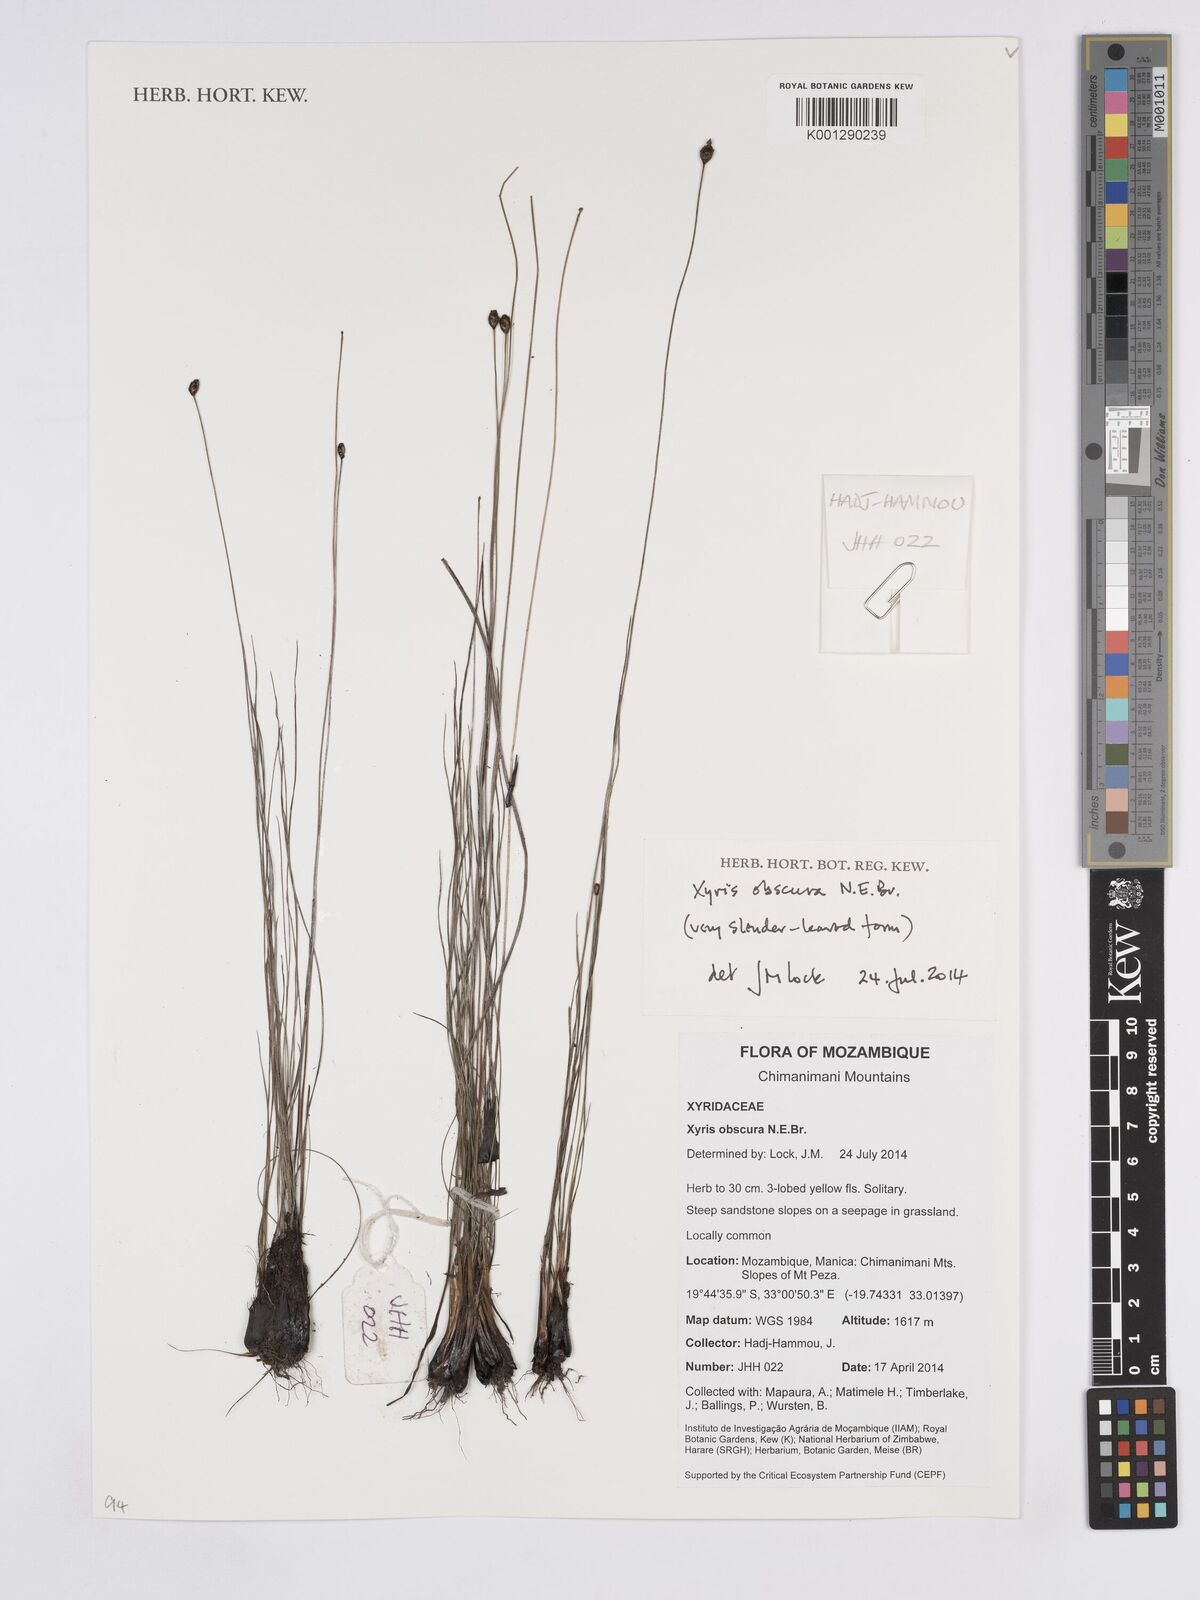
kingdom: Plantae
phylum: Tracheophyta
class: Liliopsida
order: Poales
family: Xyridaceae
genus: Xyris
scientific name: Xyris obscura
